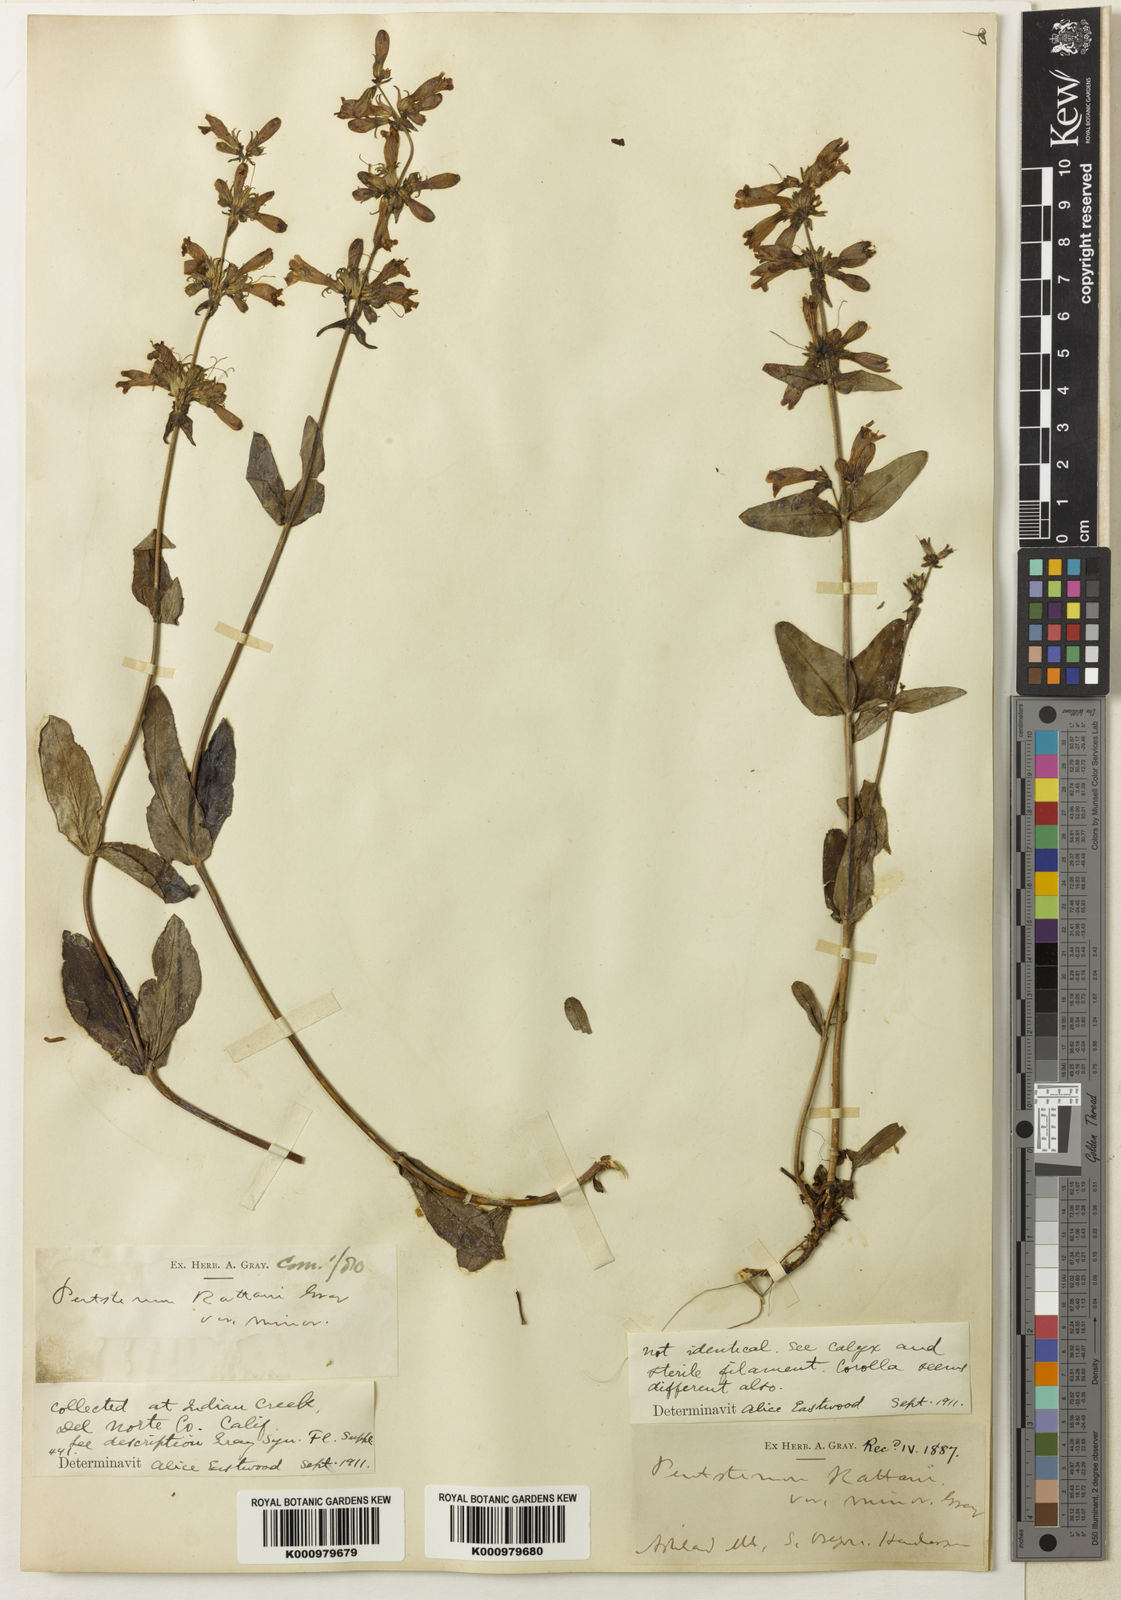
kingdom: Plantae
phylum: Tracheophyta
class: Magnoliopsida
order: Lamiales
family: Plantaginaceae
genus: Penstemon
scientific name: Penstemon
